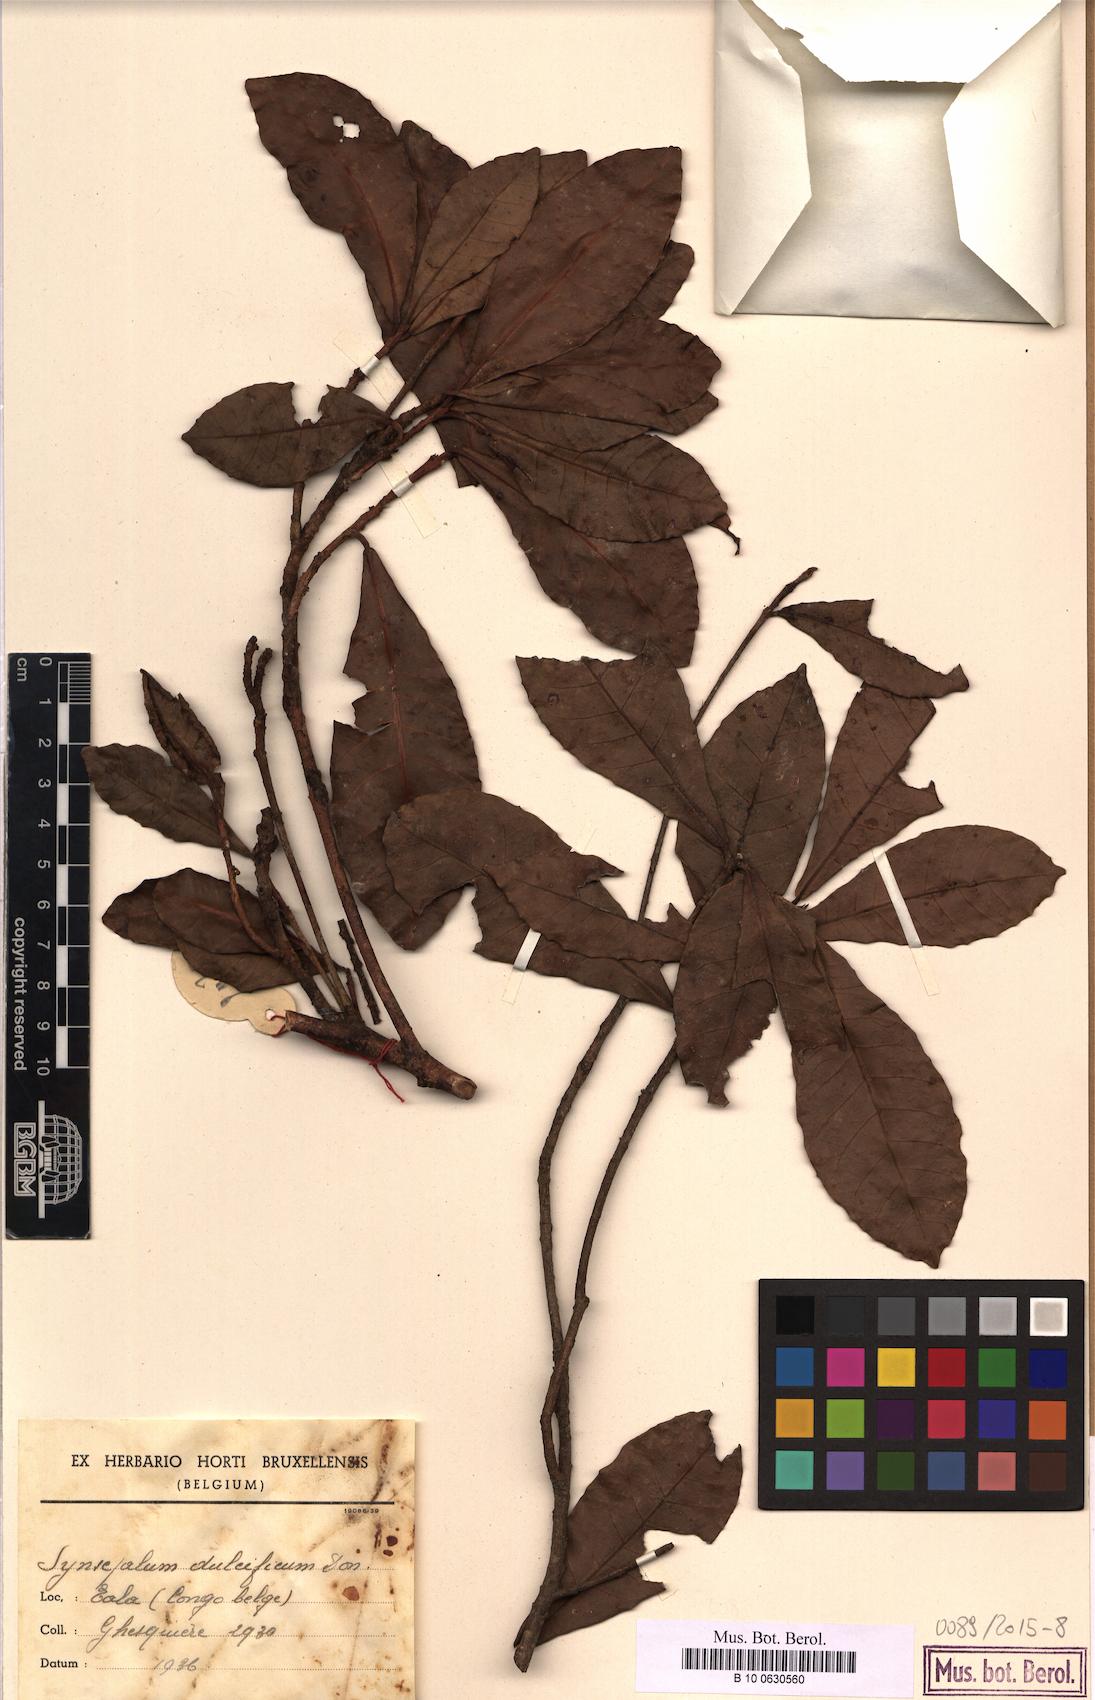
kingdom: Plantae
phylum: Tracheophyta
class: Magnoliopsida
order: Ericales
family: Sapotaceae
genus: Synsepalum
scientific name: Synsepalum dulcificum
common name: Miracle-fruit
